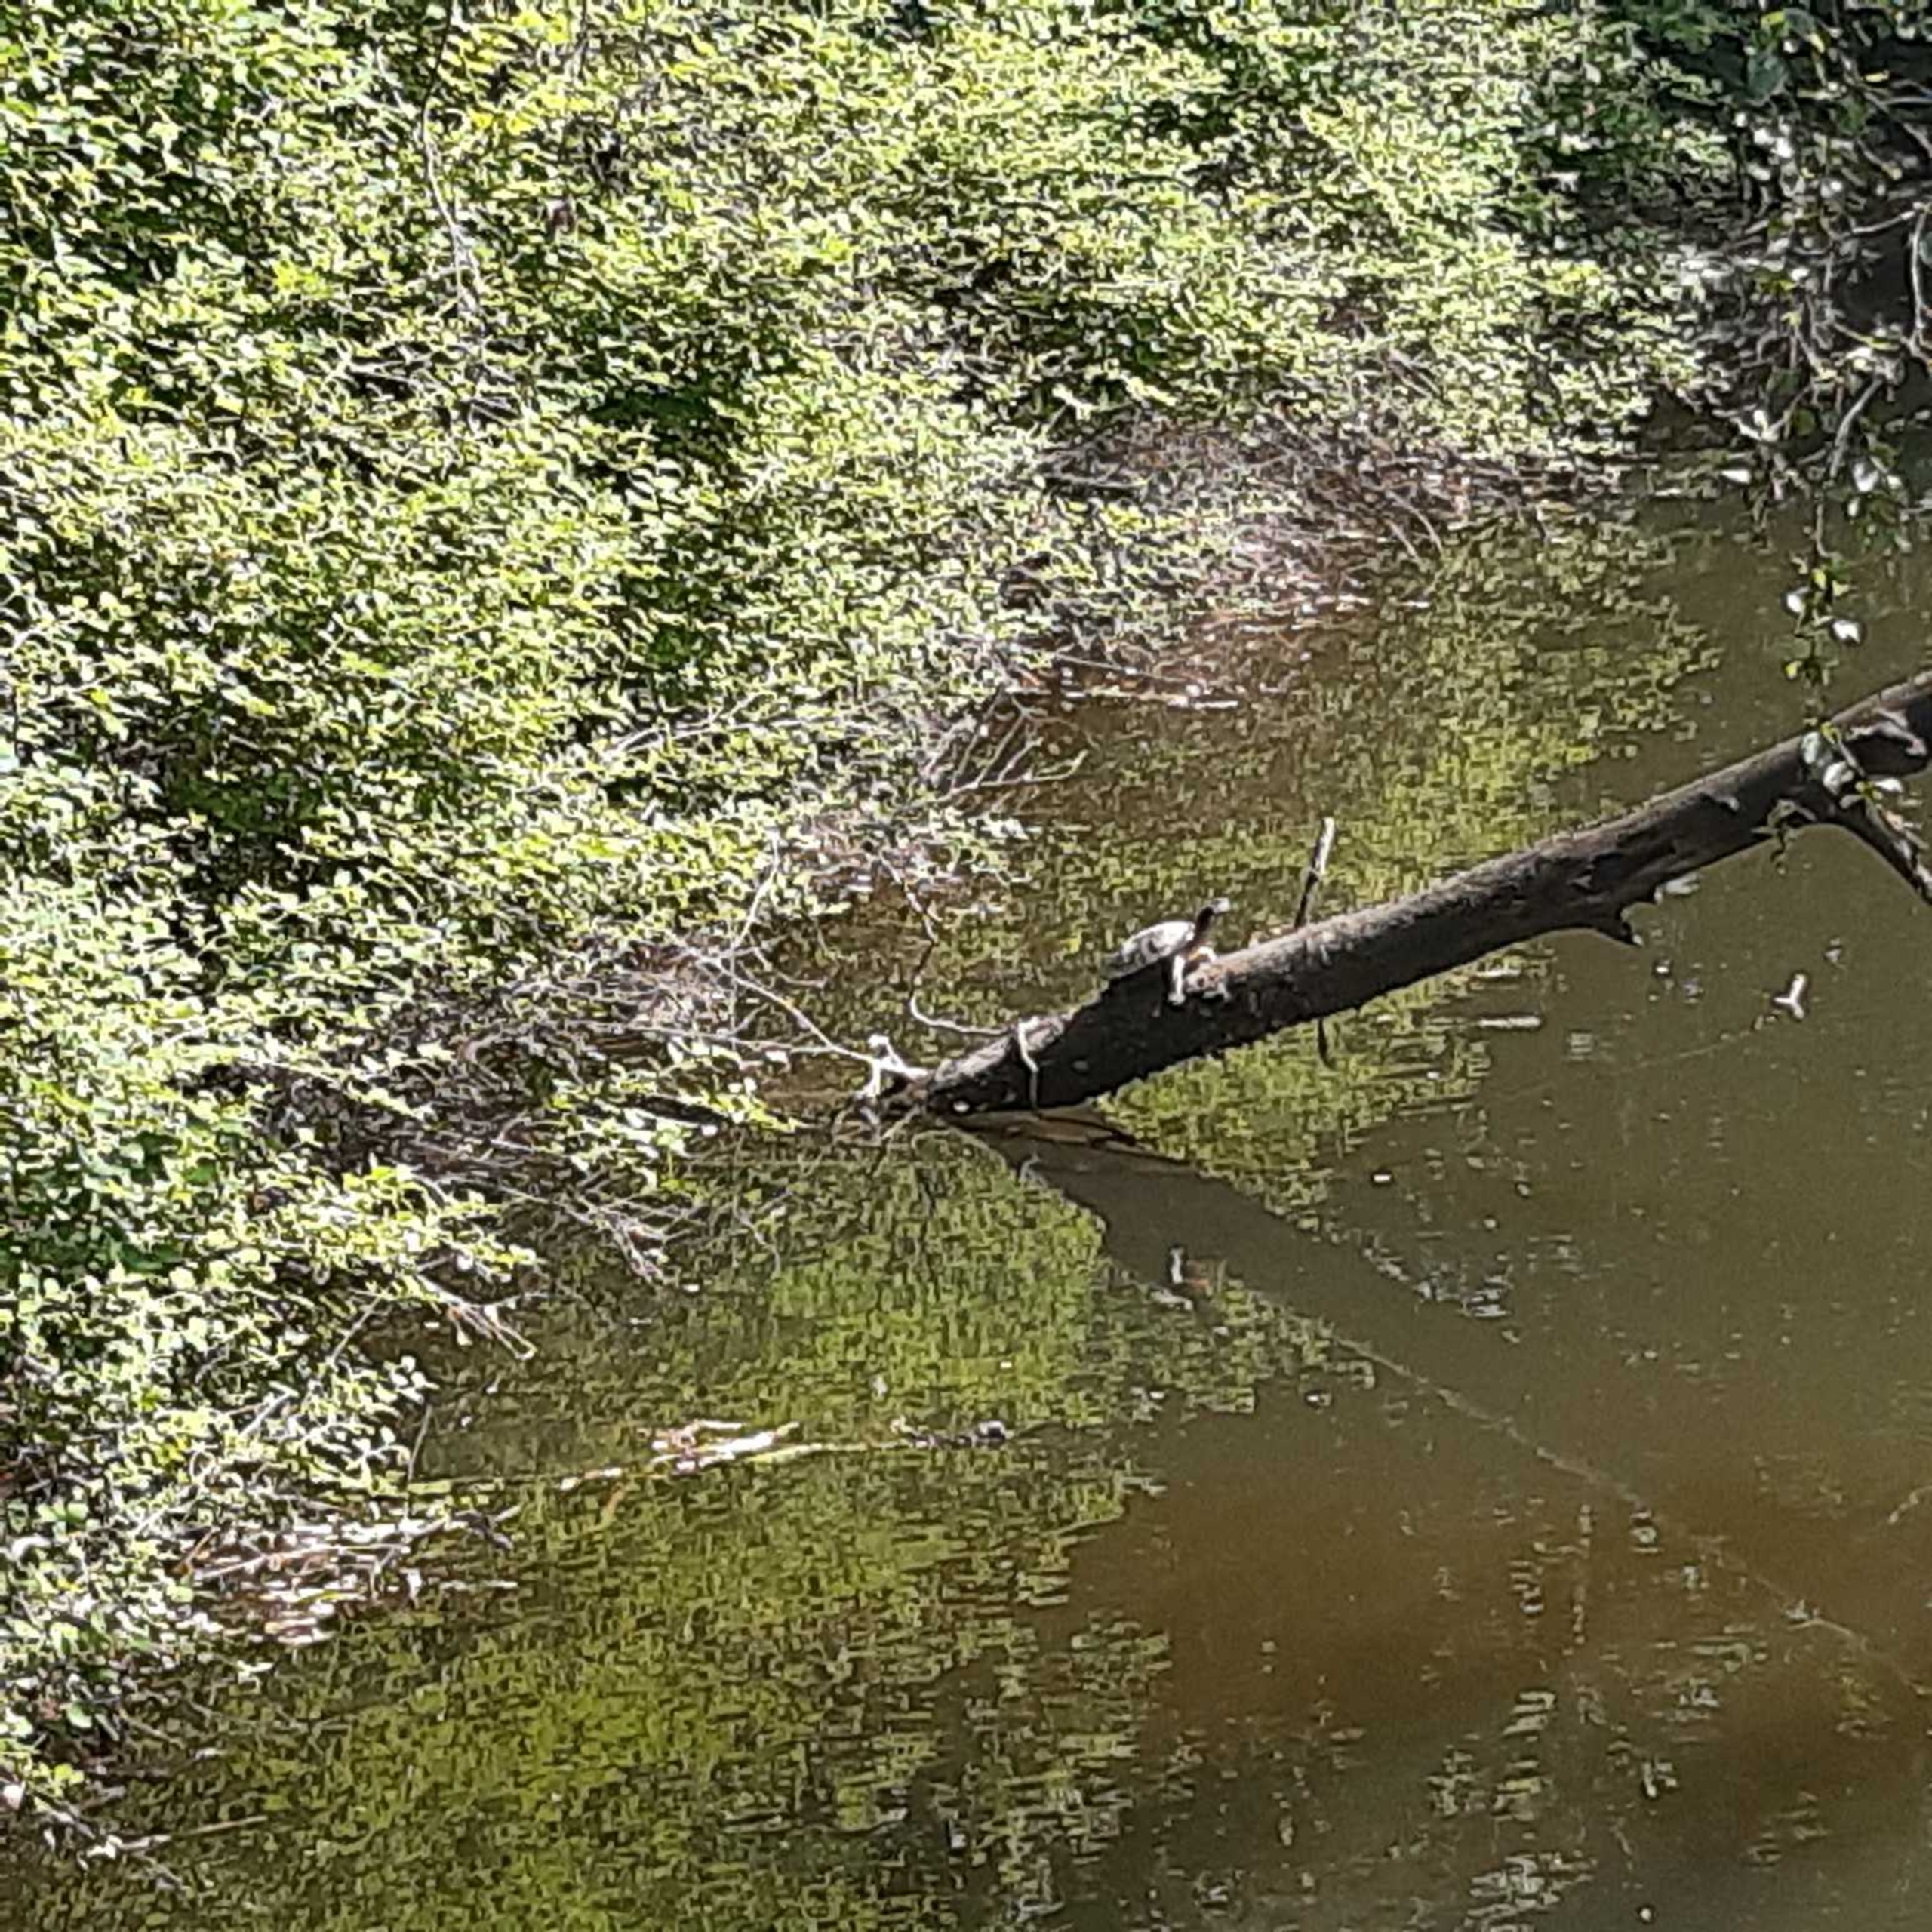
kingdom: Animalia
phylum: Chordata
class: Testudines
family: Emydidae
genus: Trachemys
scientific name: Trachemys scripta
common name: Rødøret terrapin
